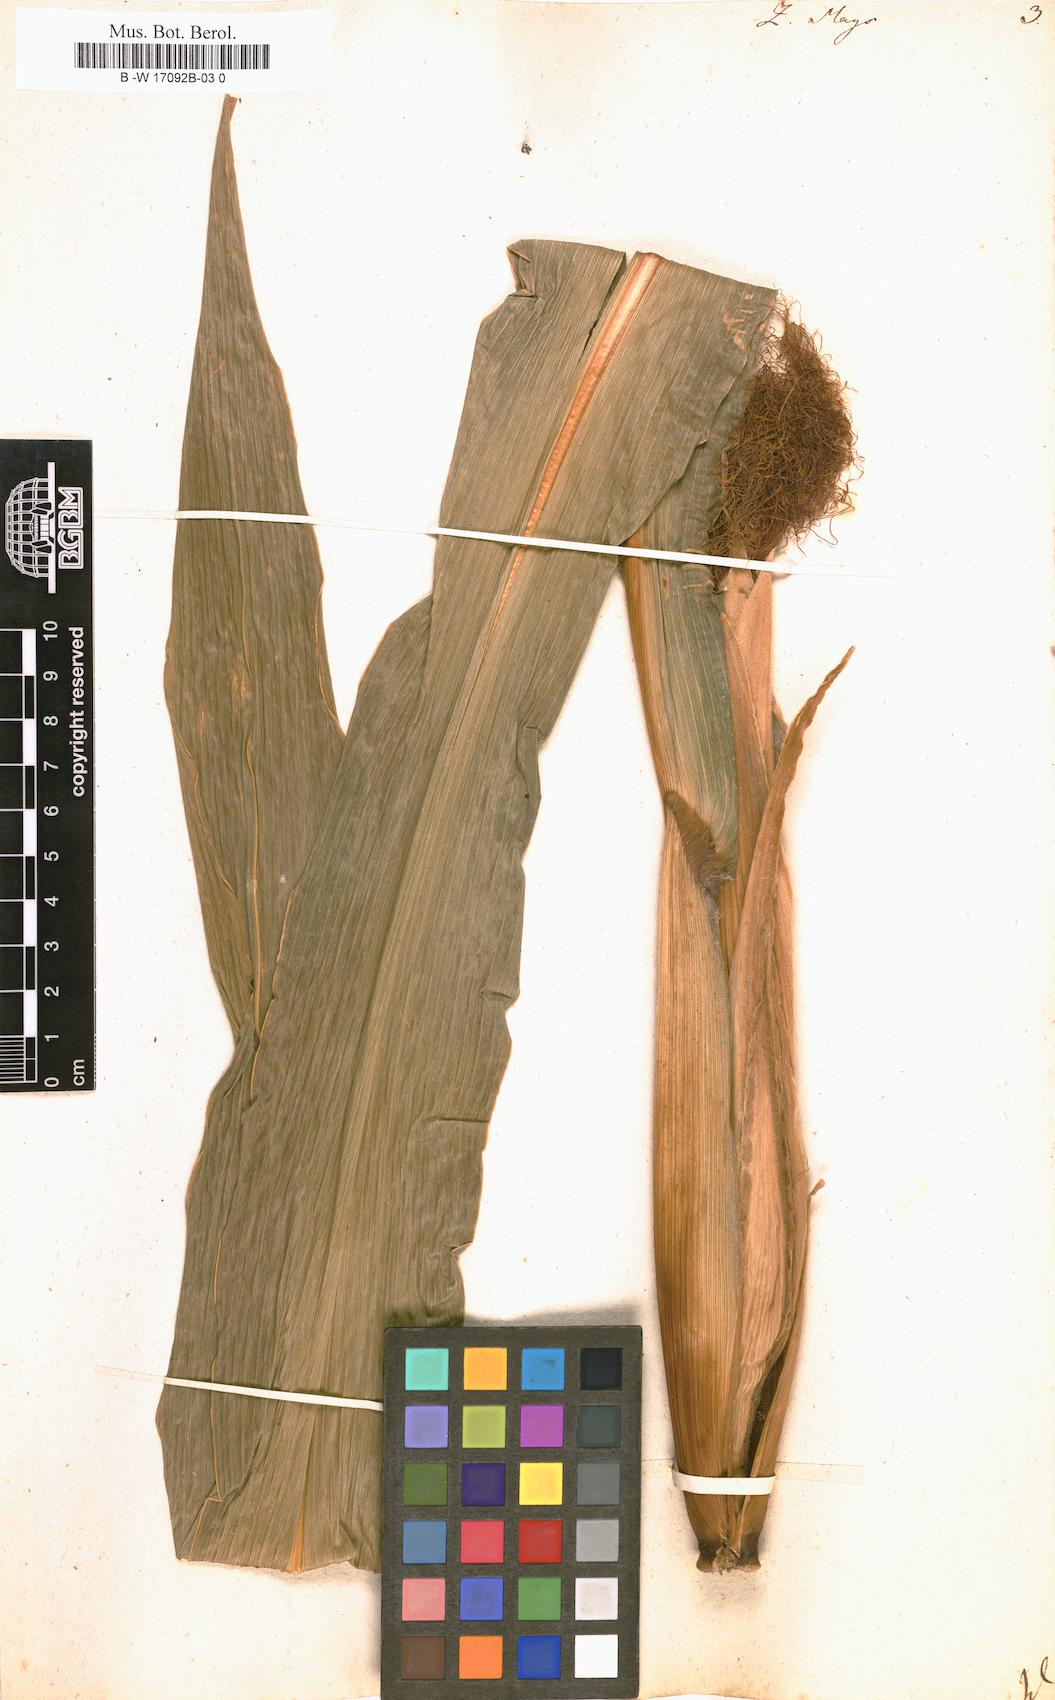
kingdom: Plantae
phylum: Tracheophyta
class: Liliopsida
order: Poales
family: Poaceae
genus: Zea
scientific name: Zea mays
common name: Maize
